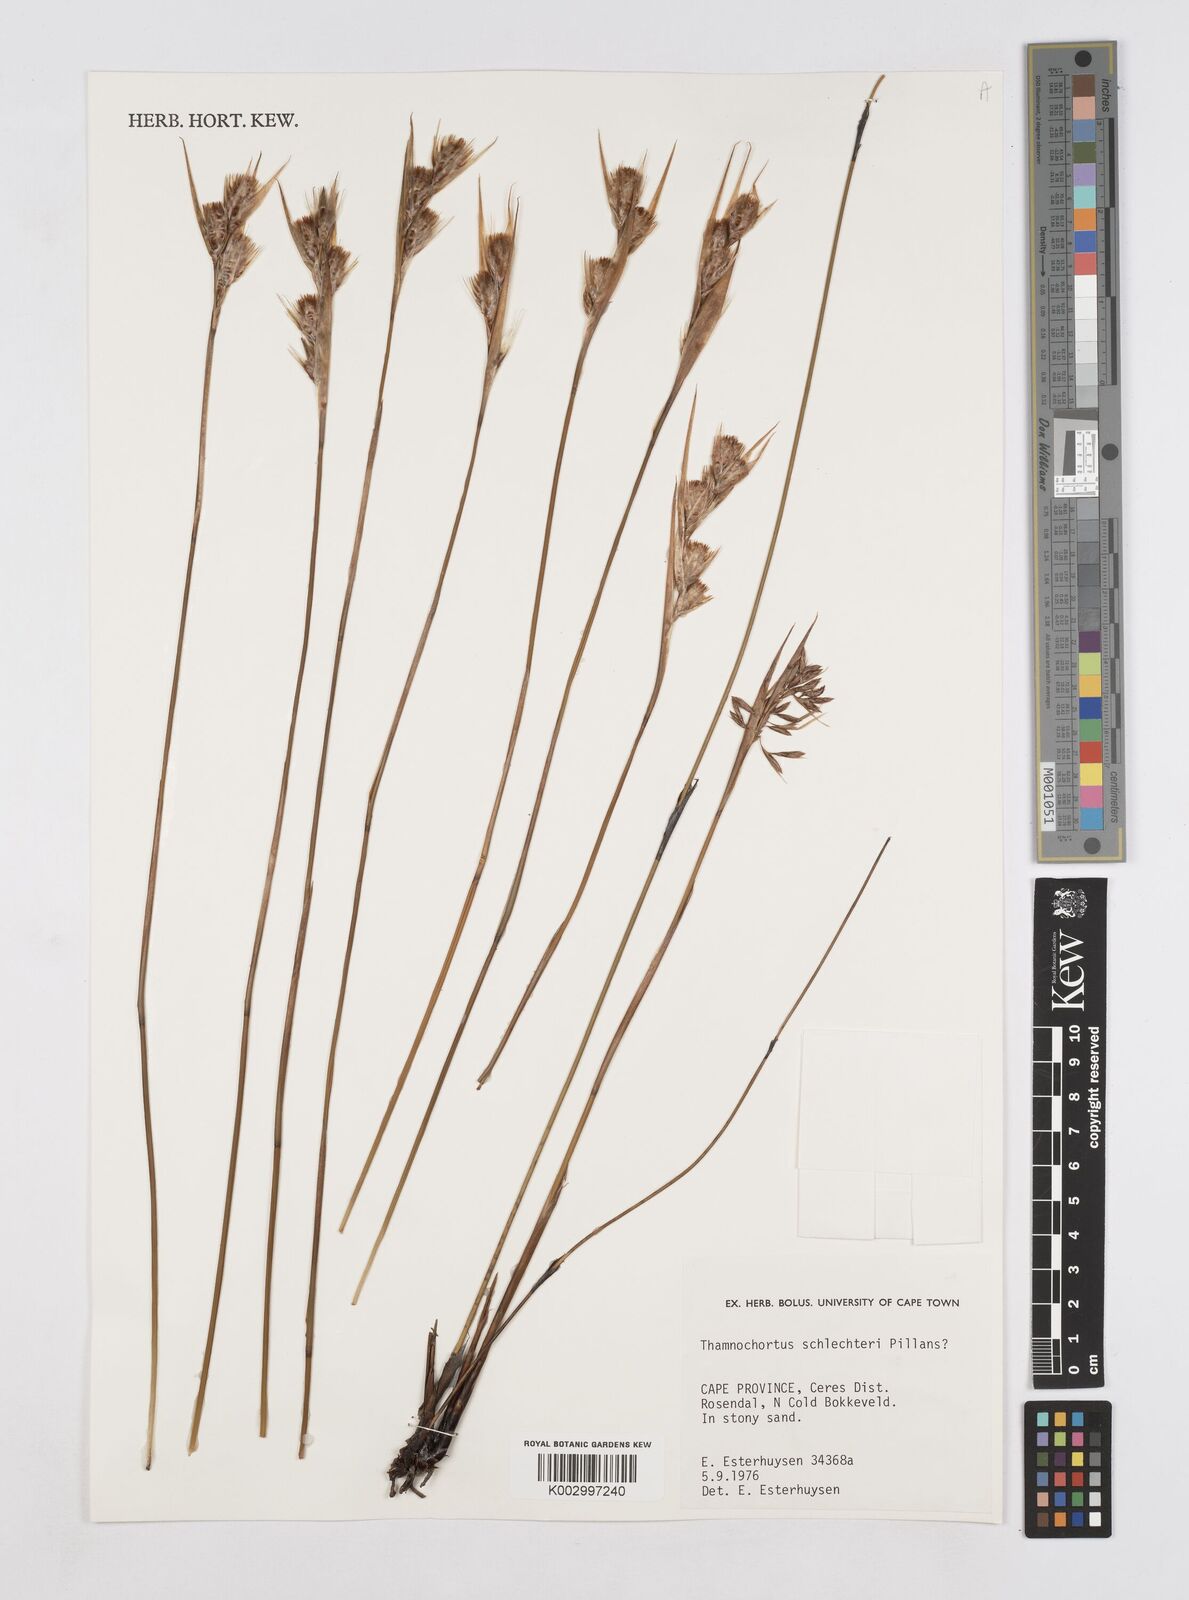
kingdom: Plantae
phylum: Tracheophyta
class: Liliopsida
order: Poales
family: Restionaceae
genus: Thamnochortus
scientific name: Thamnochortus schlechteri
